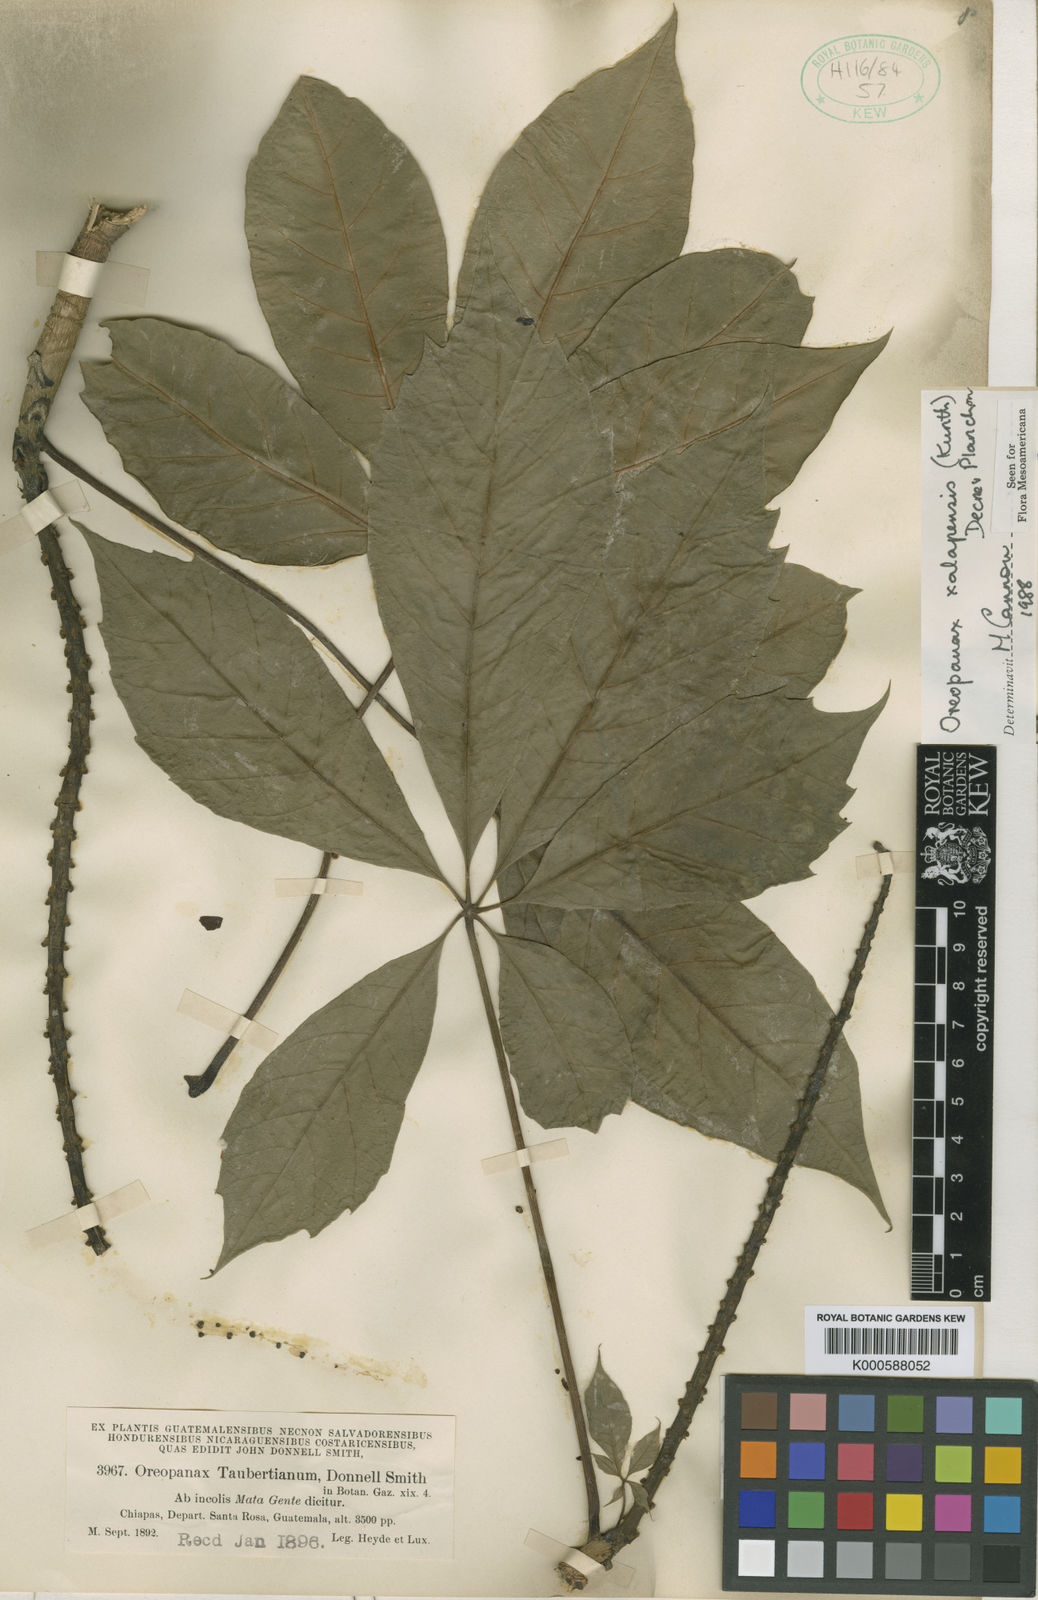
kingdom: Plantae
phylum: Tracheophyta
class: Magnoliopsida
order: Apiales
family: Araliaceae
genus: Oreopanax
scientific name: Oreopanax
